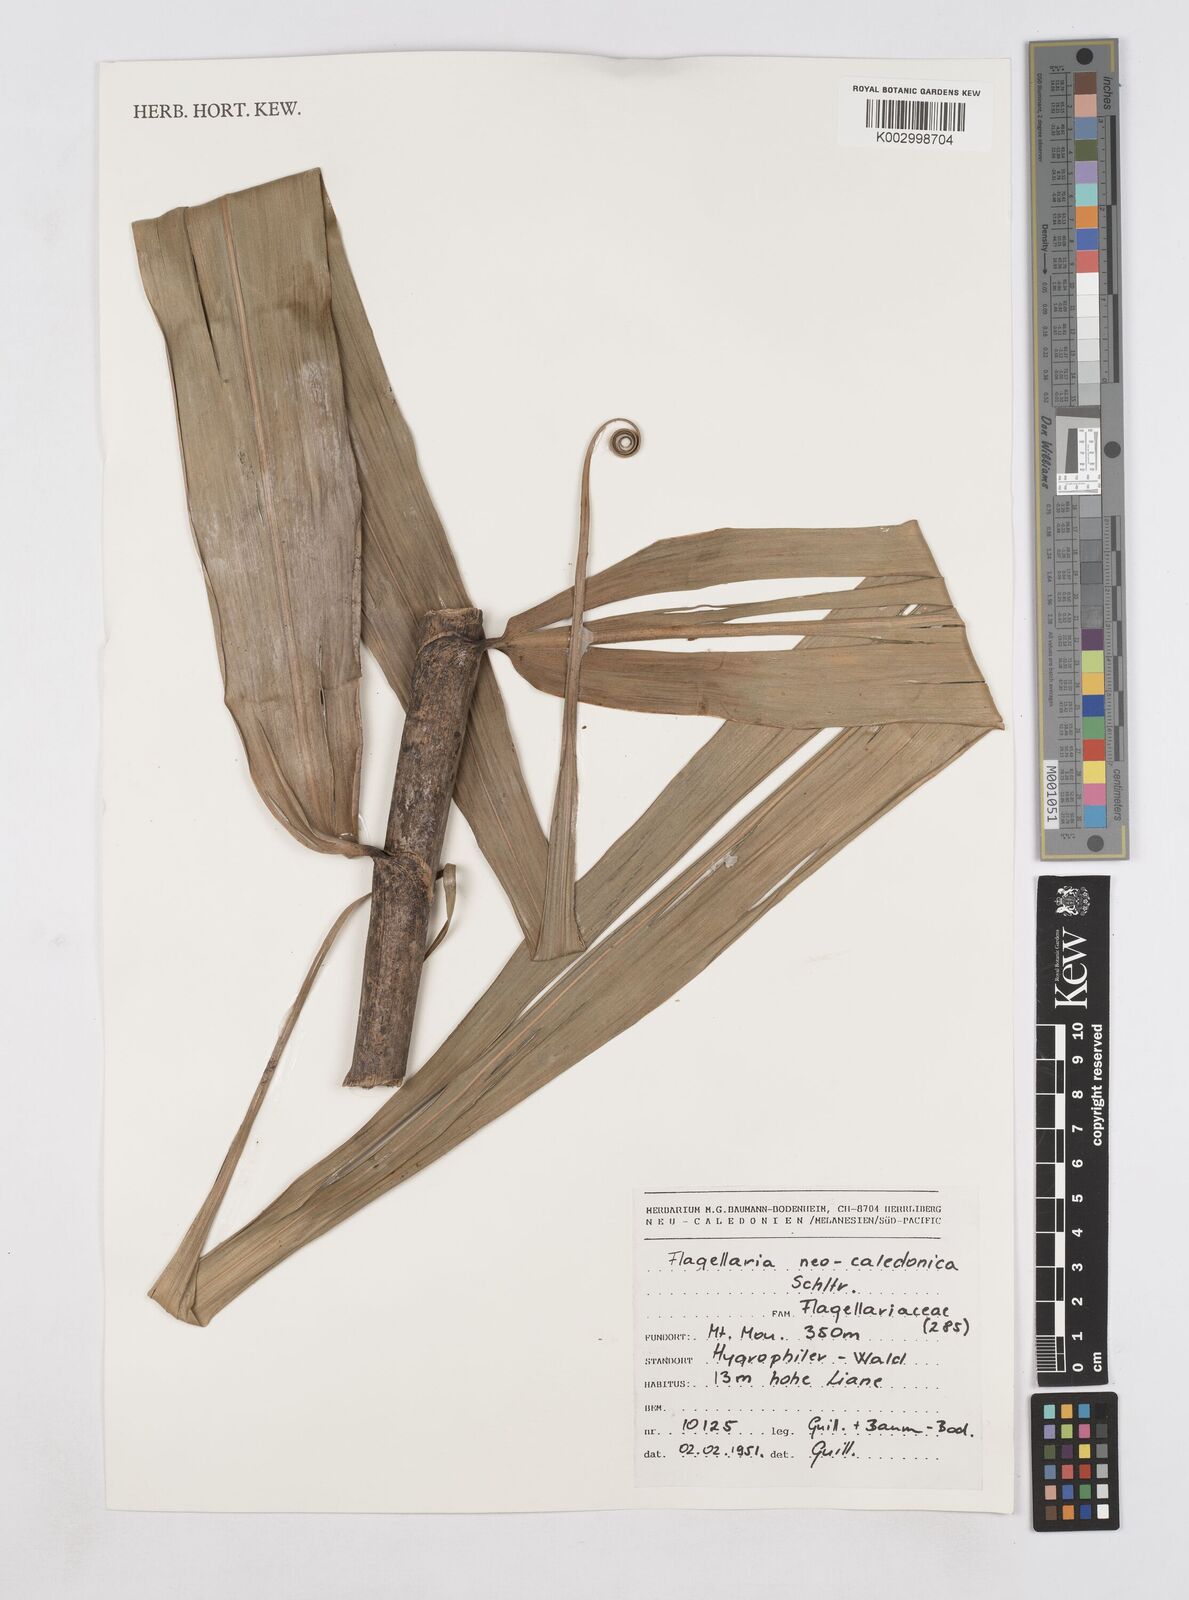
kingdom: Plantae
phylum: Tracheophyta
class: Liliopsida
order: Poales
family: Flagellariaceae
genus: Flagellaria
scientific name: Flagellaria neocaledonica
